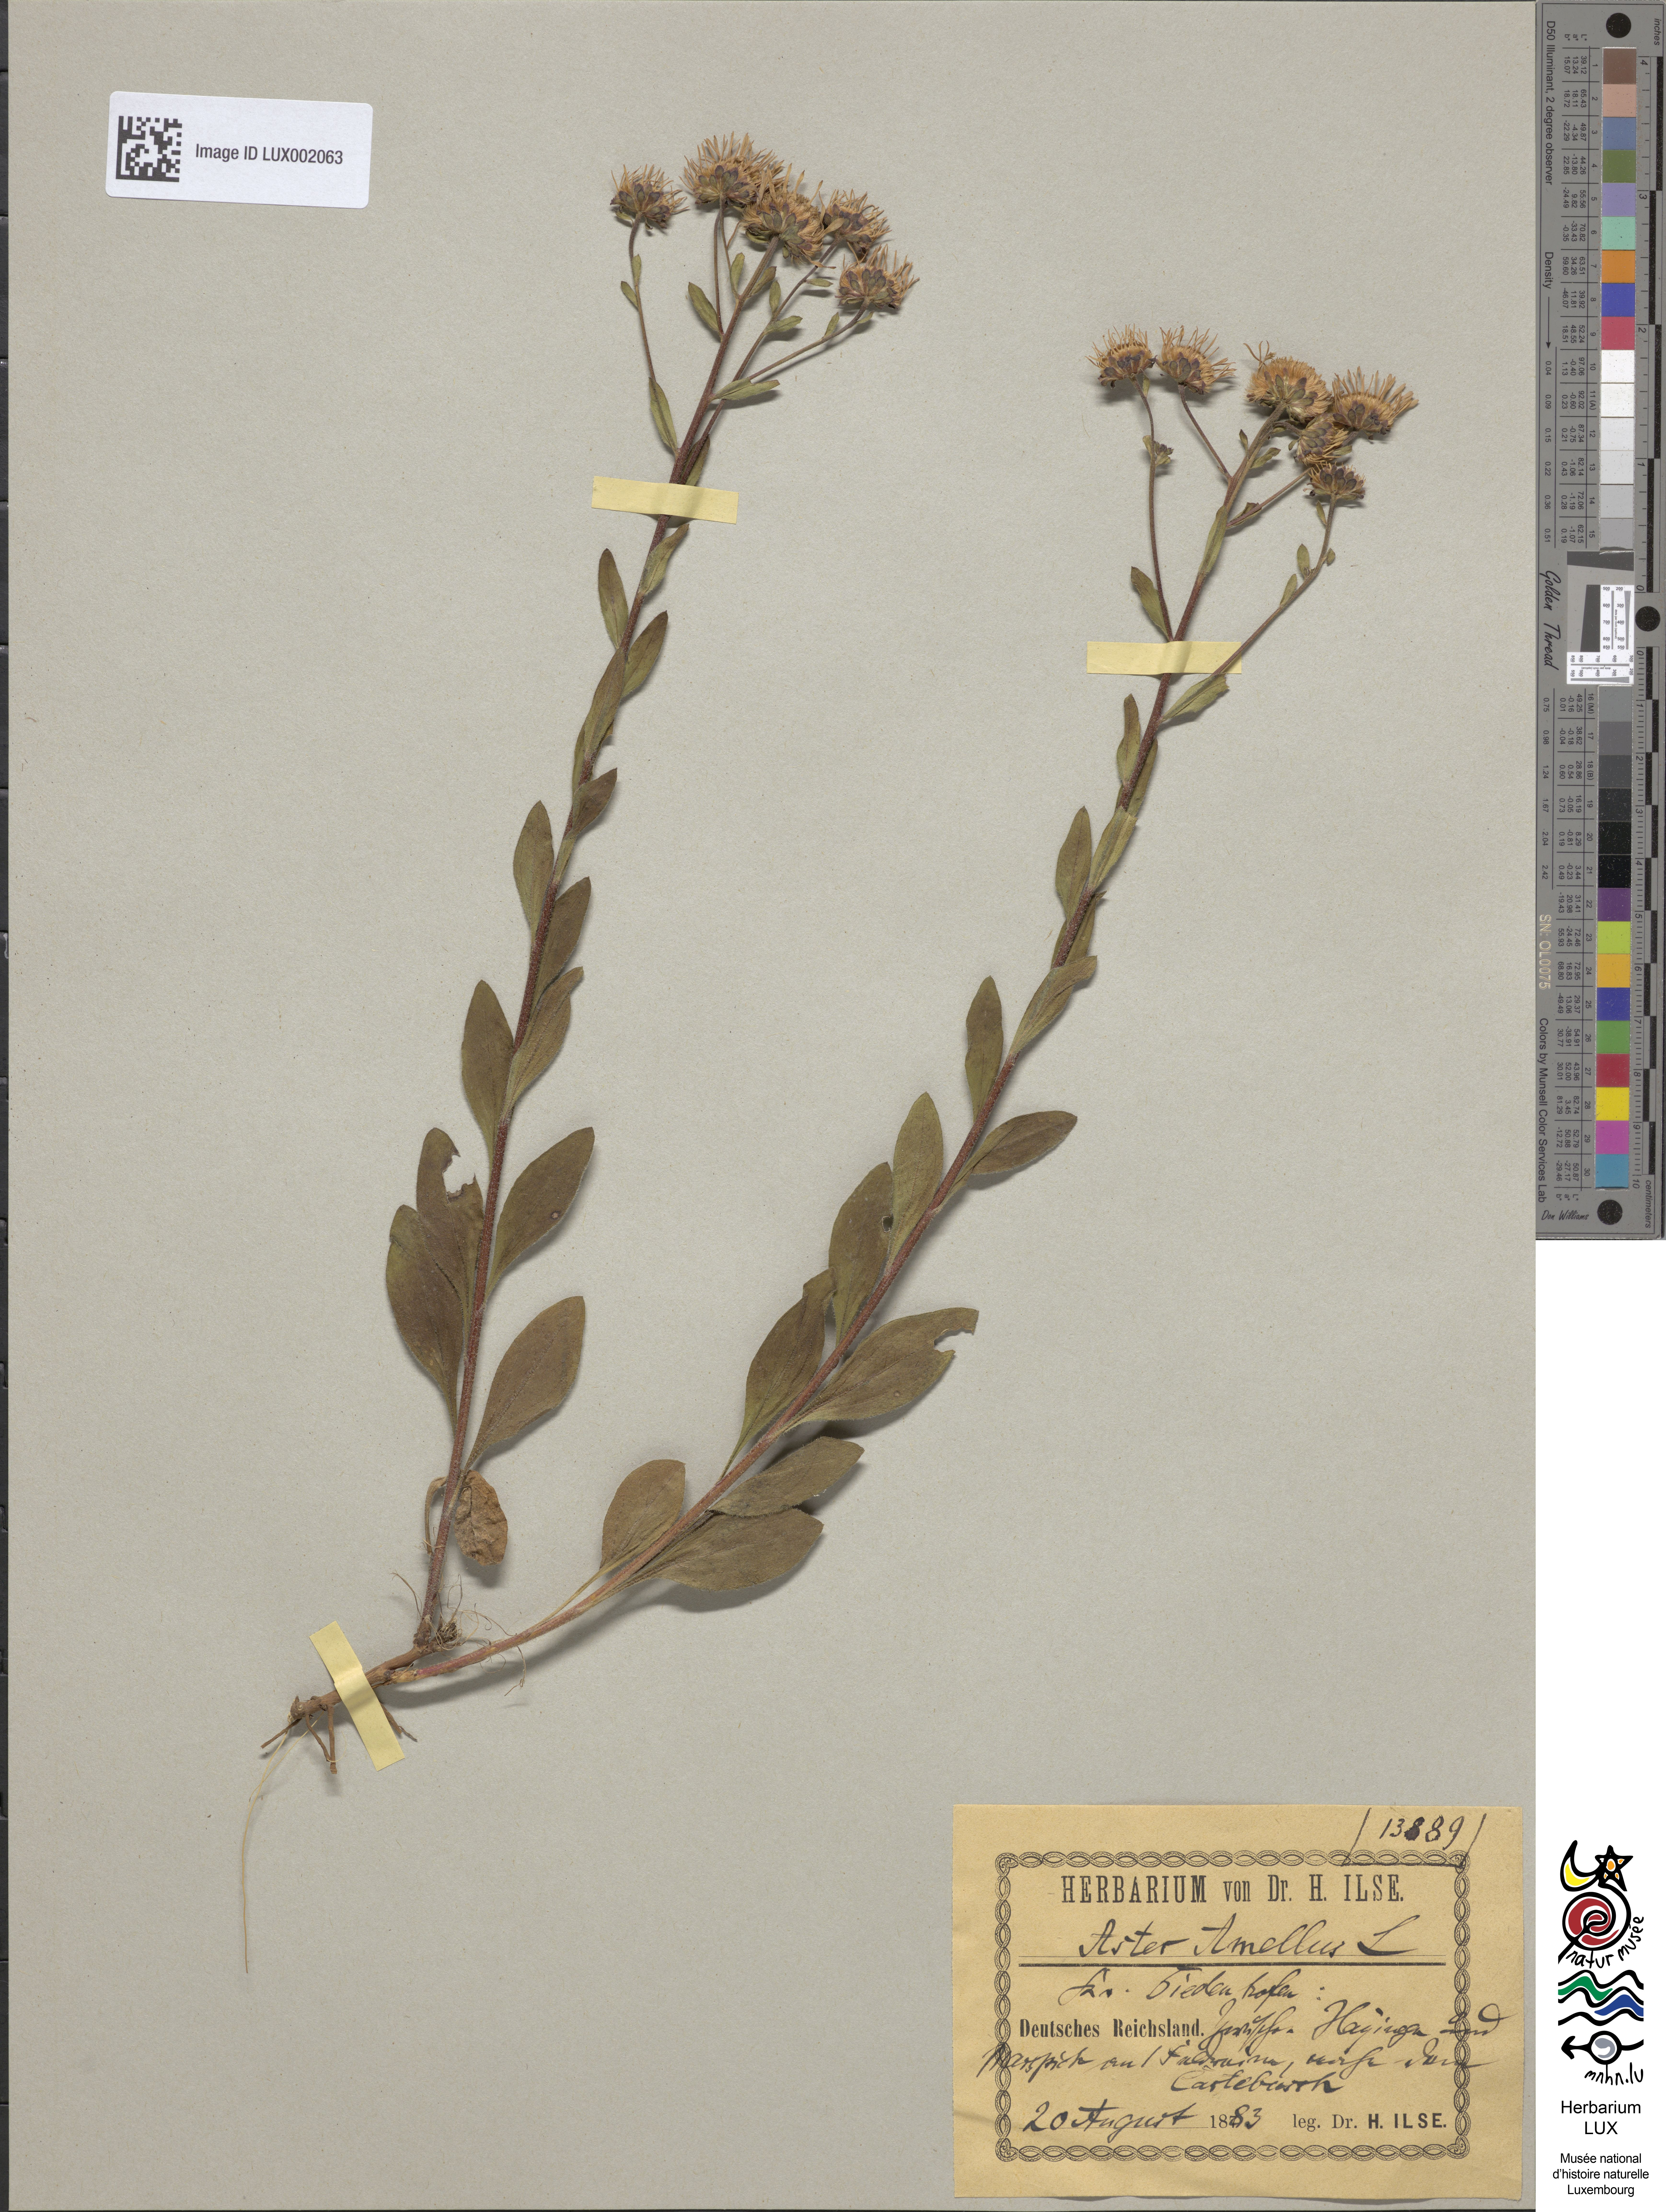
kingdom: Plantae
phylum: Tracheophyta
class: Magnoliopsida
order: Asterales
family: Asteraceae
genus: Aster
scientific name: Aster amellus
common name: European michaelmas daisy
